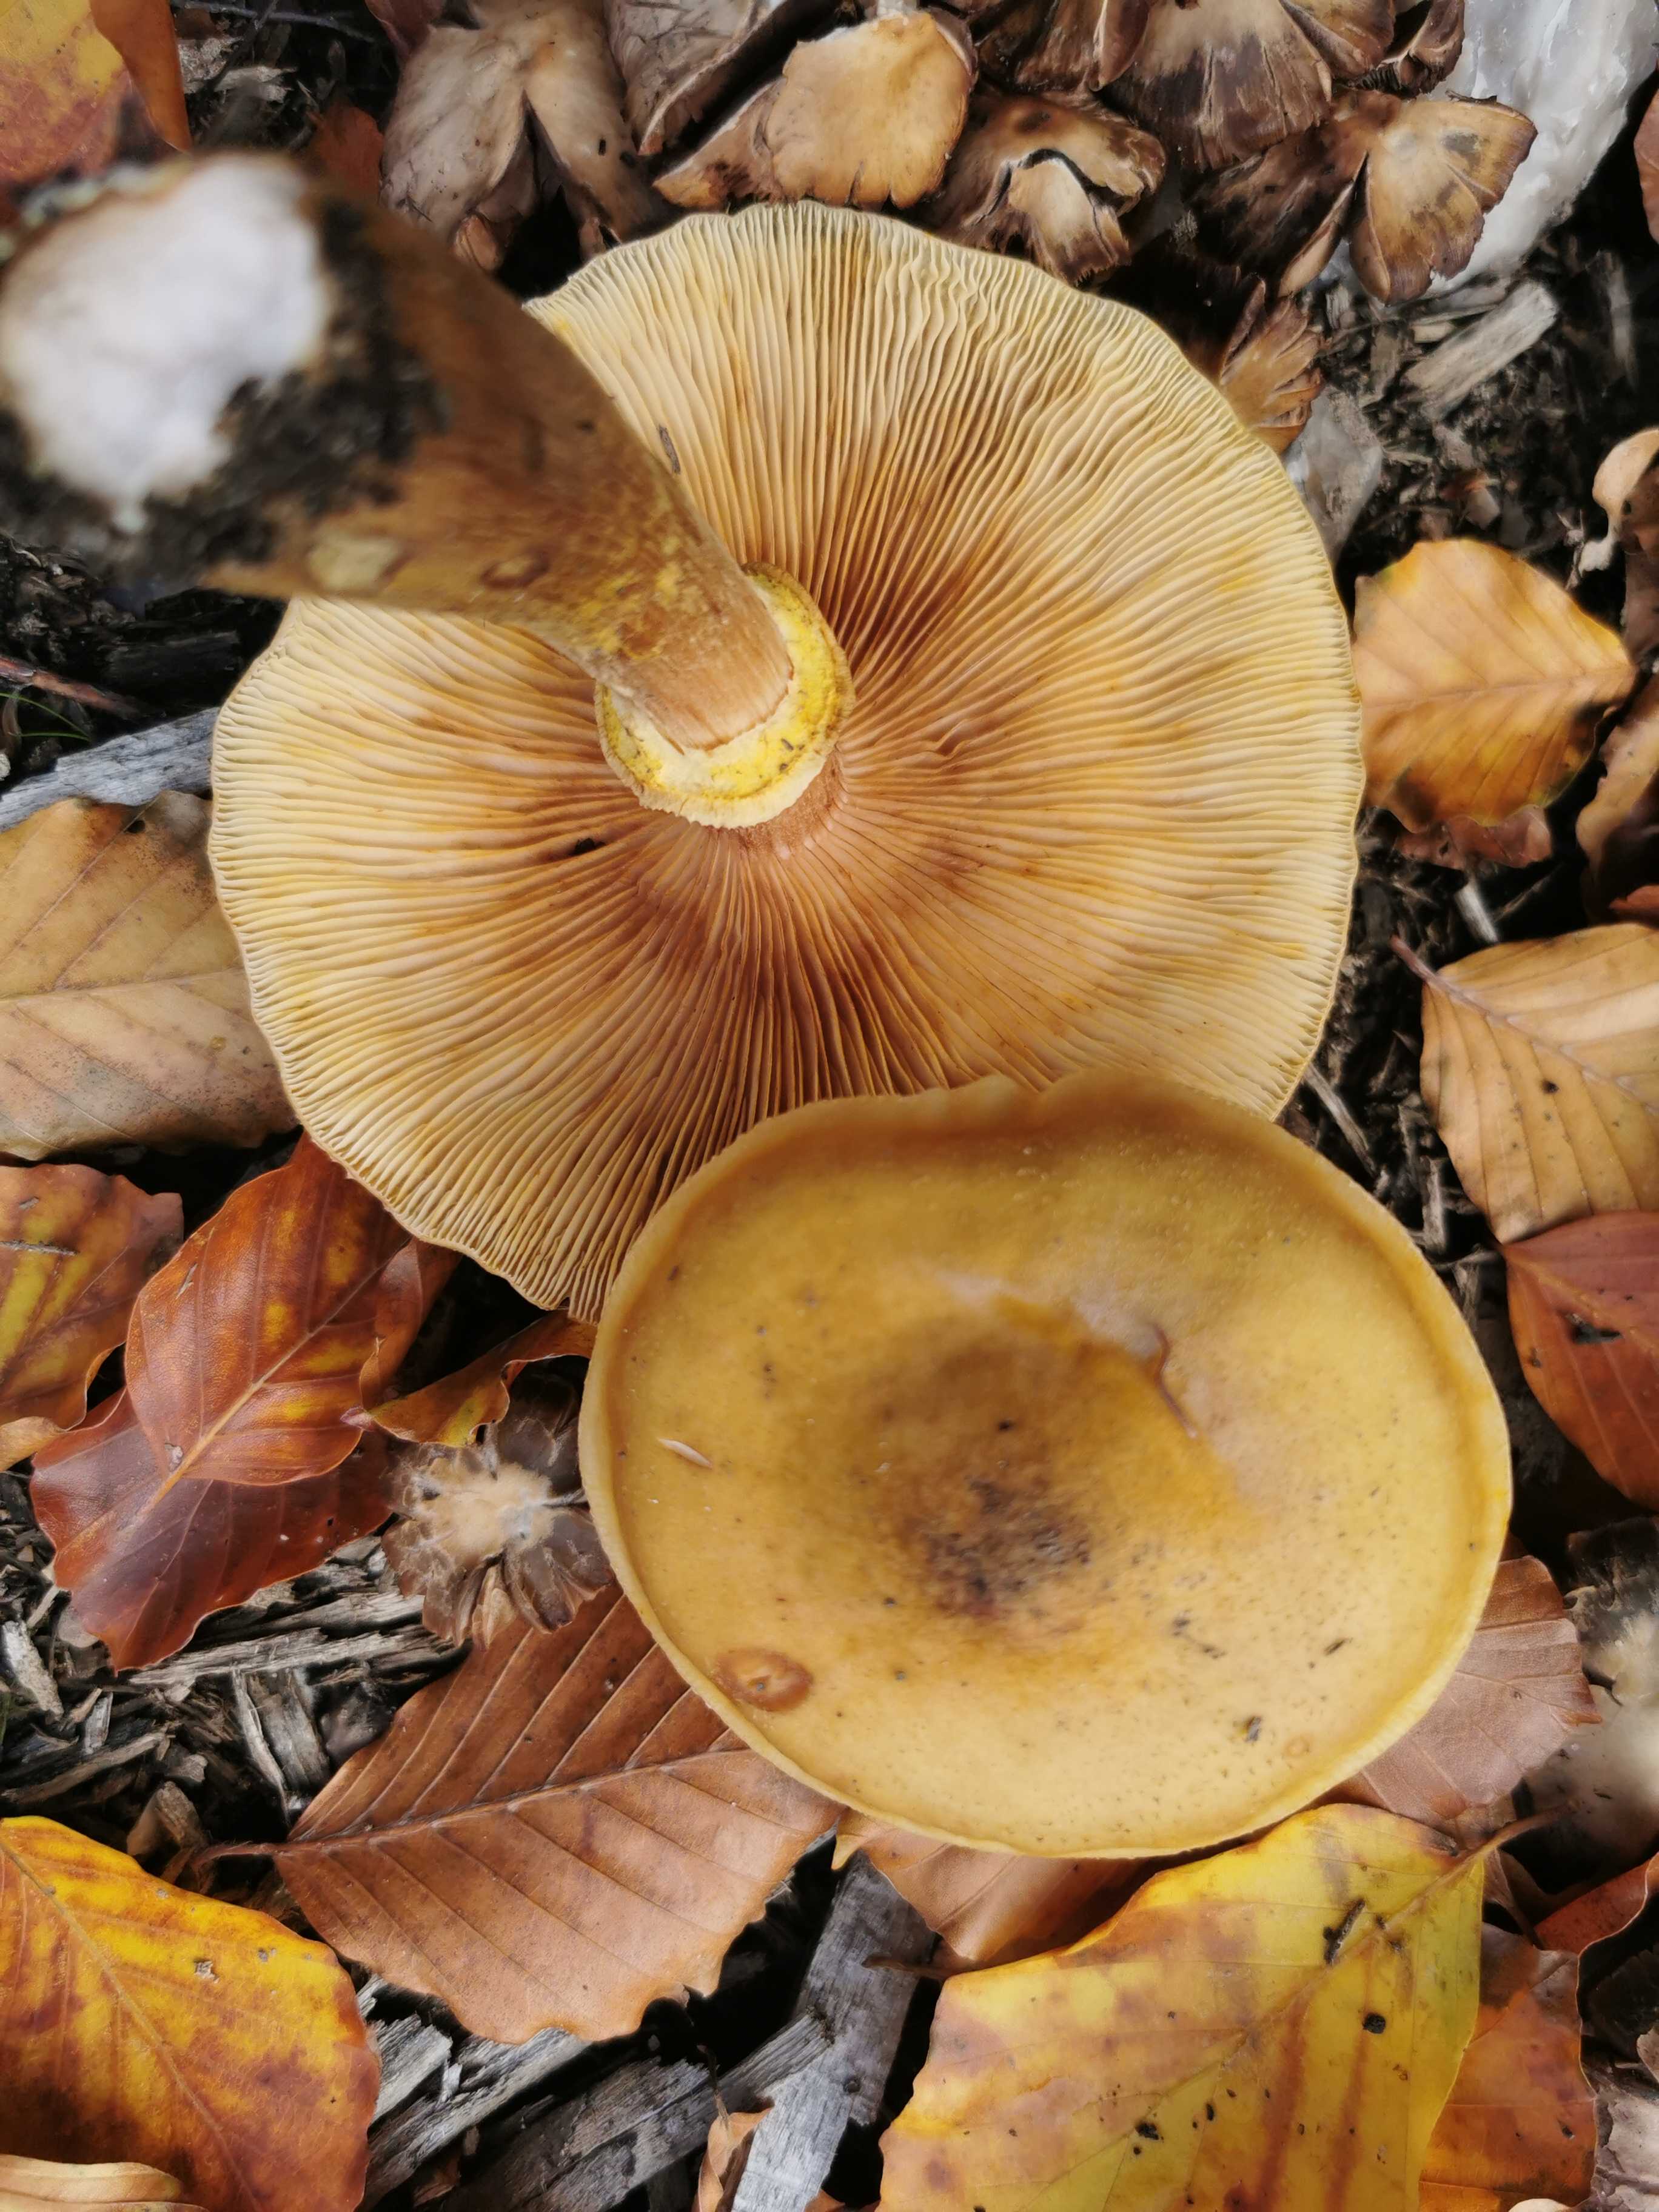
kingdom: Fungi
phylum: Basidiomycota
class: Agaricomycetes
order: Agaricales
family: Physalacriaceae
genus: Armillaria
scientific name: Armillaria mellea
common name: ægte honningsvamp
